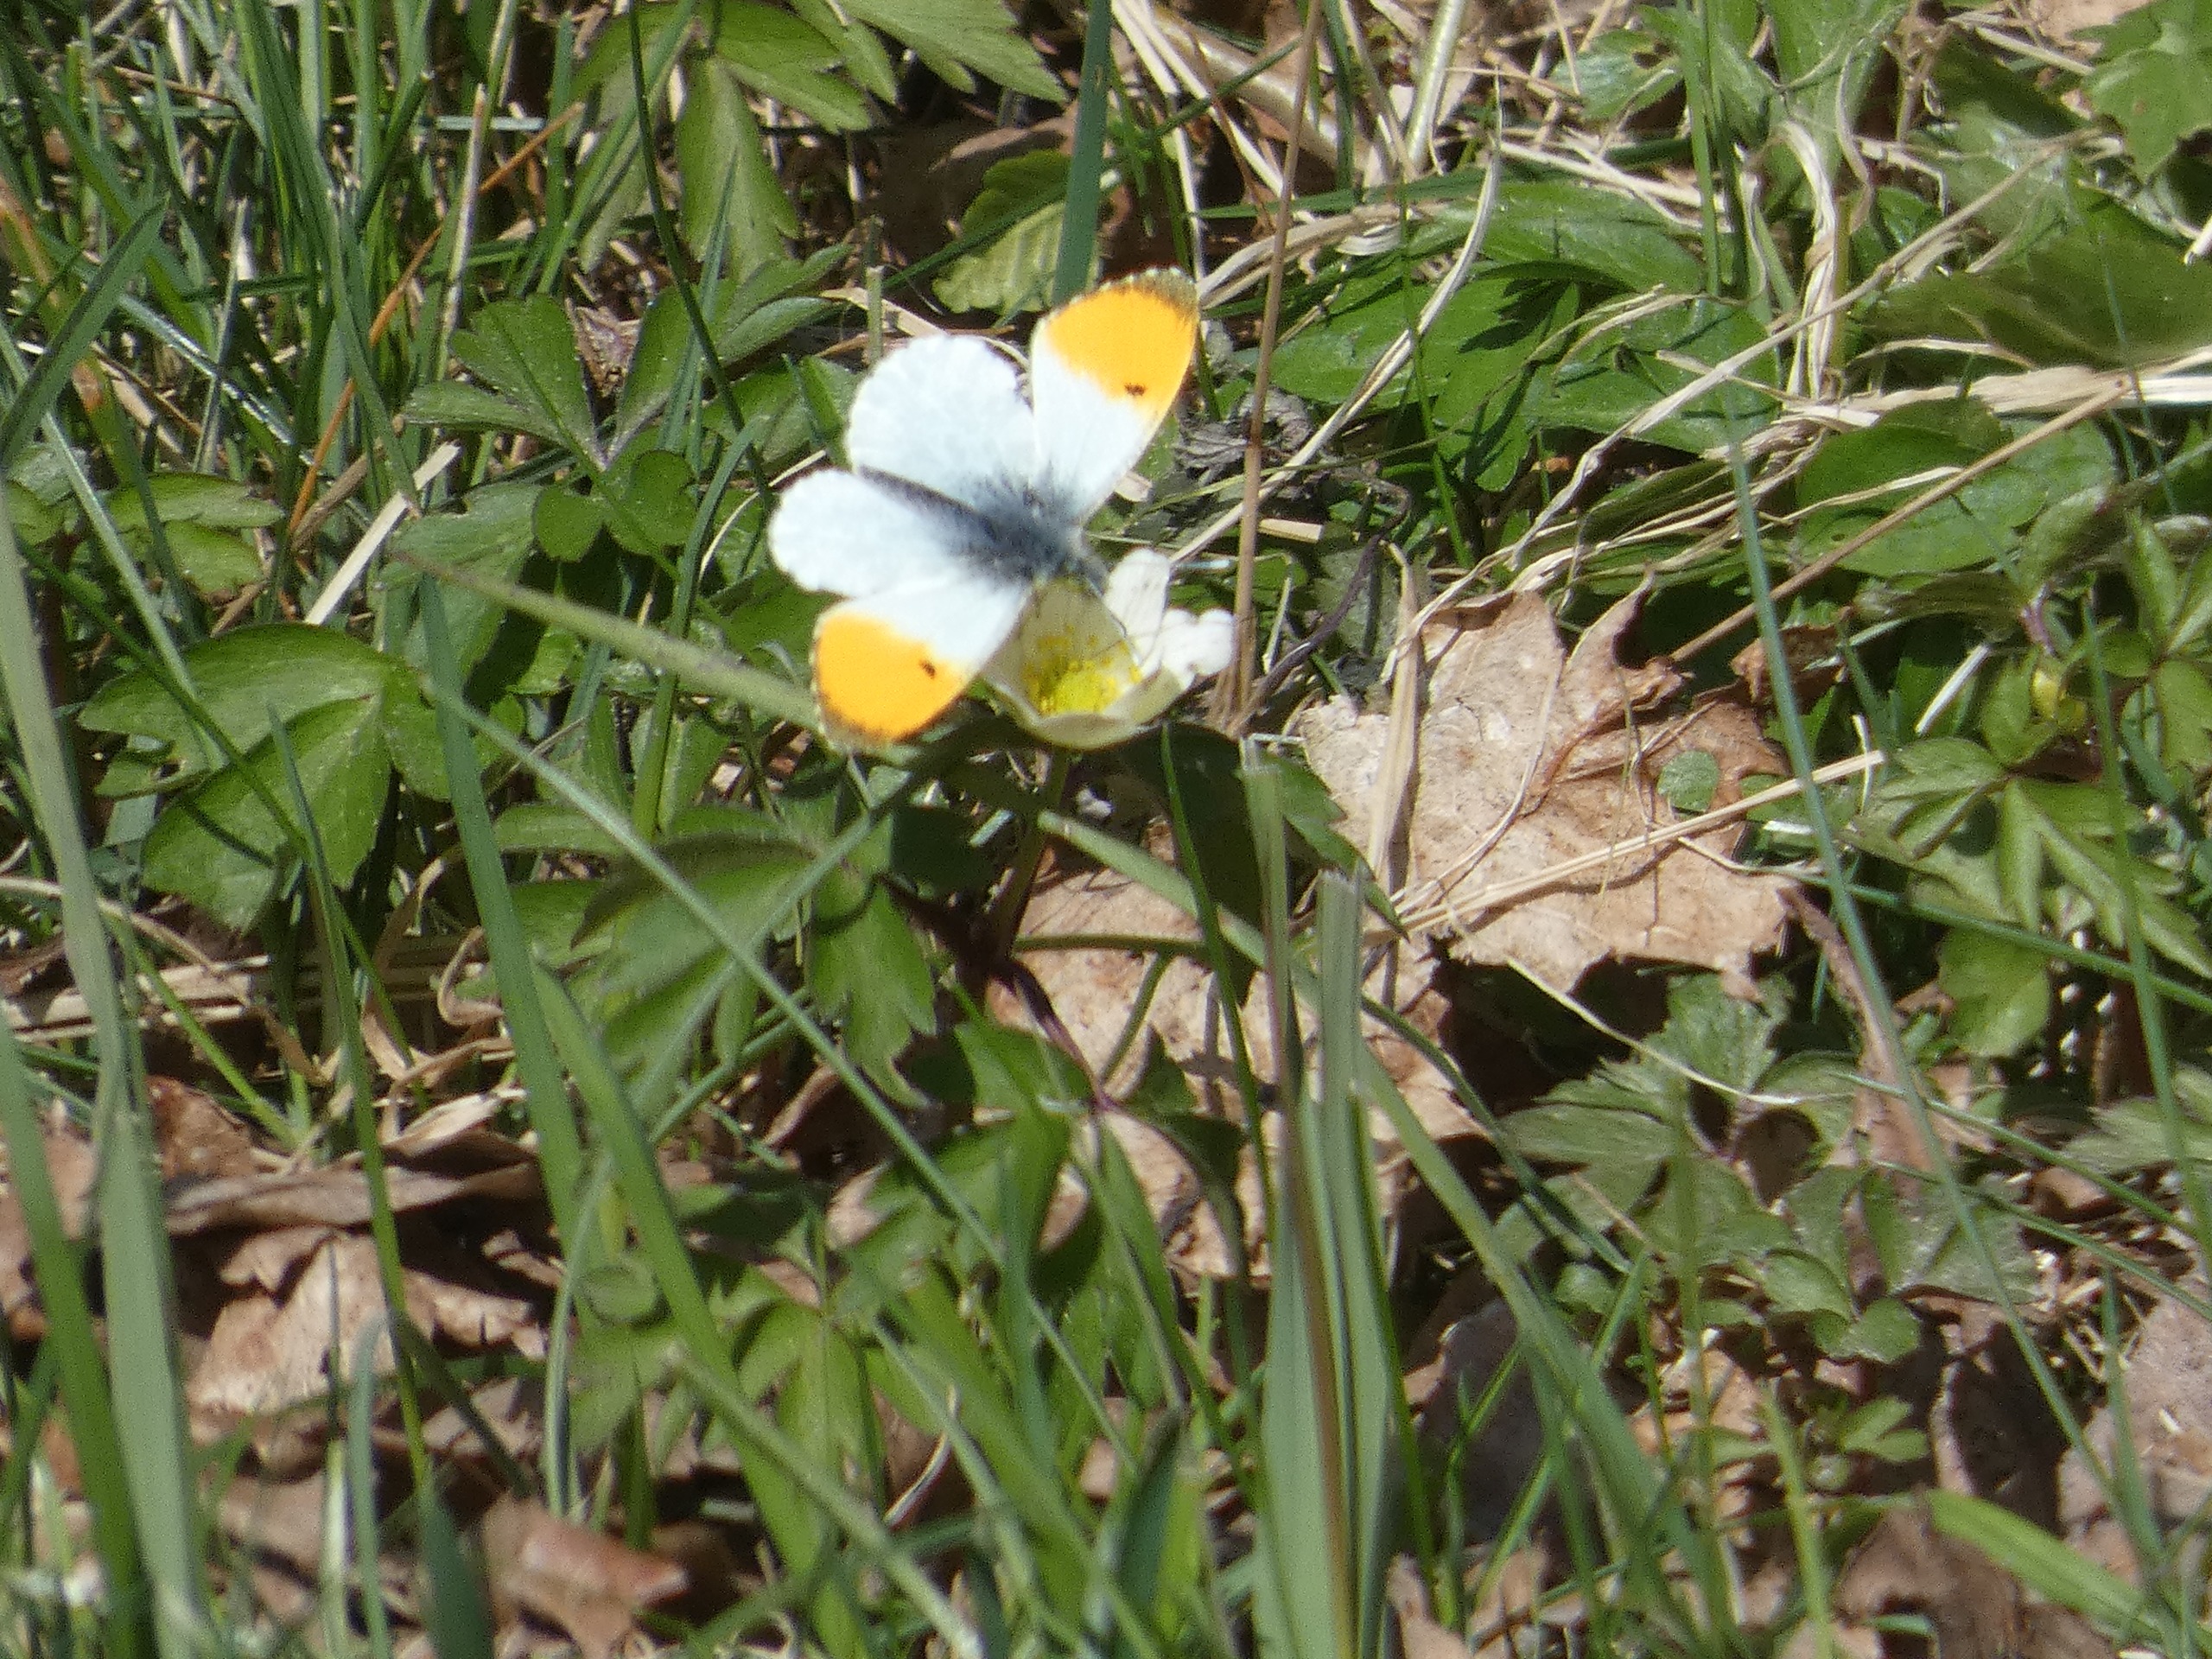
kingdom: Animalia
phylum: Arthropoda
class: Insecta
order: Lepidoptera
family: Pieridae
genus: Anthocharis
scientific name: Anthocharis cardamines
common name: Aurora
